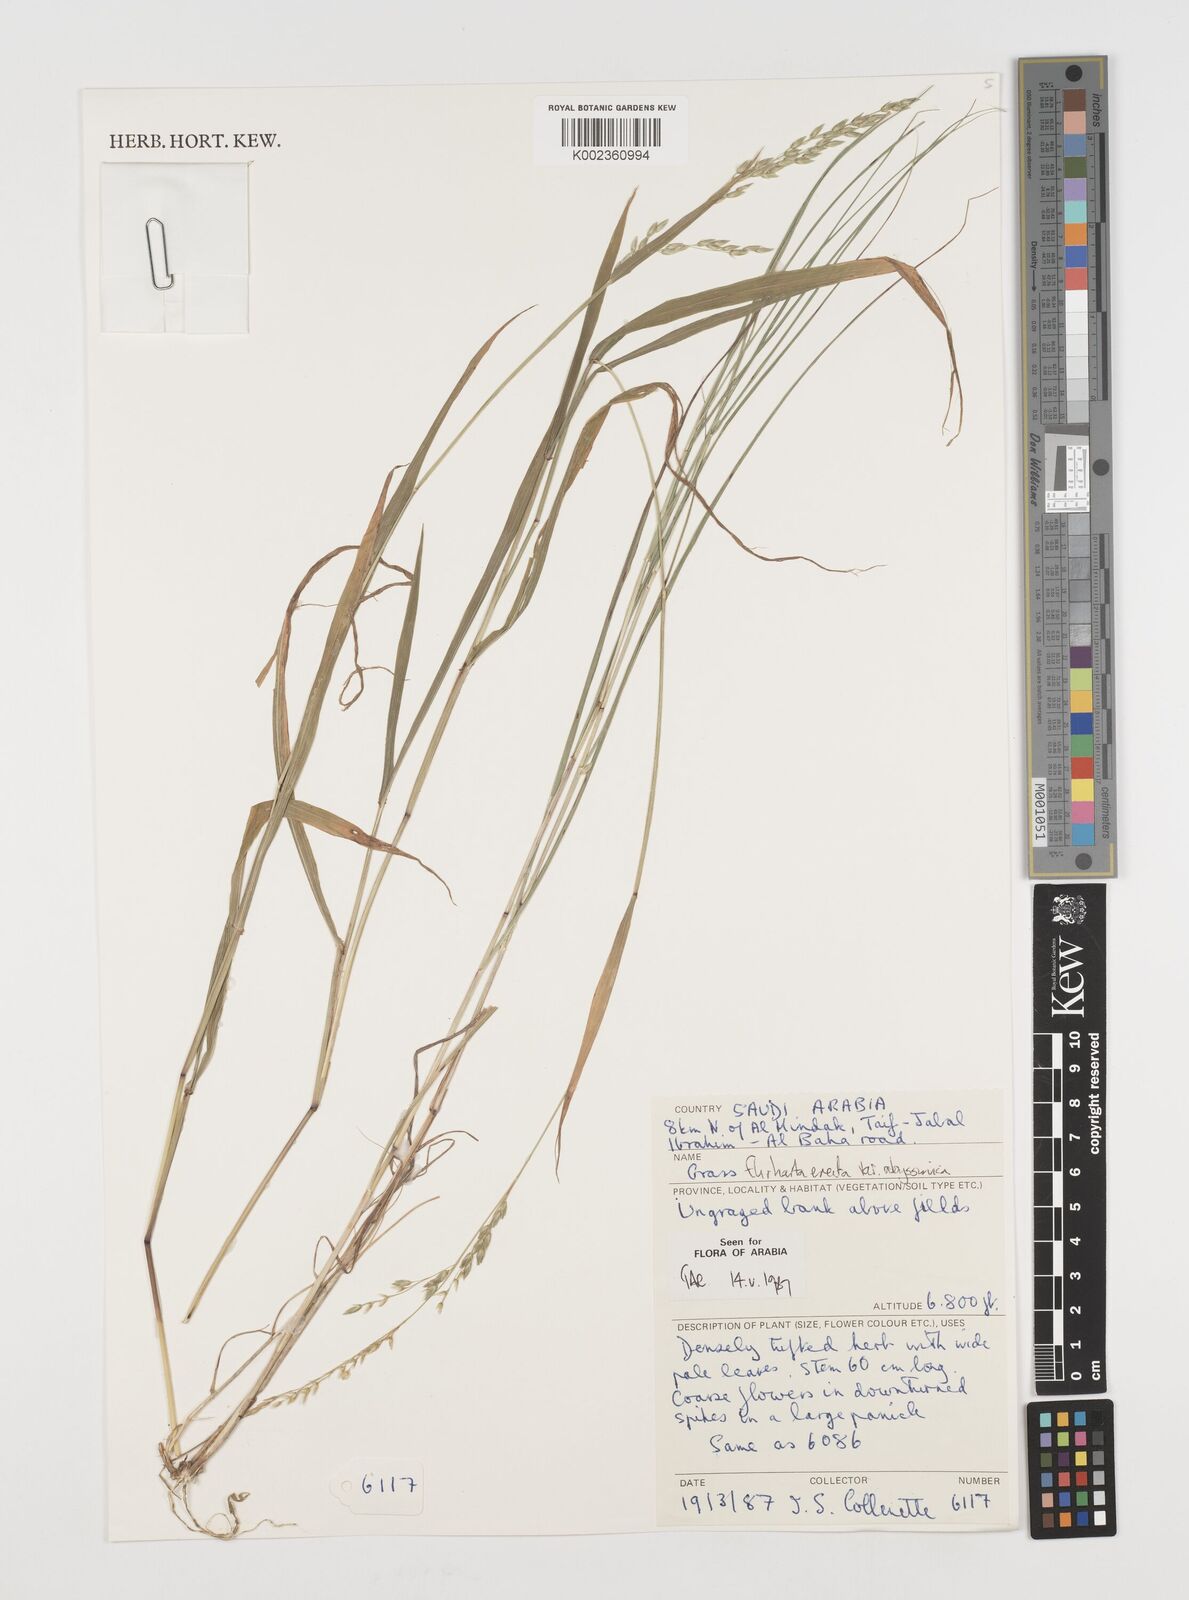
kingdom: Plantae
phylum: Tracheophyta
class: Liliopsida
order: Poales
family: Poaceae
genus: Ehrharta
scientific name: Ehrharta erecta
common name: Panic veldtgrass
